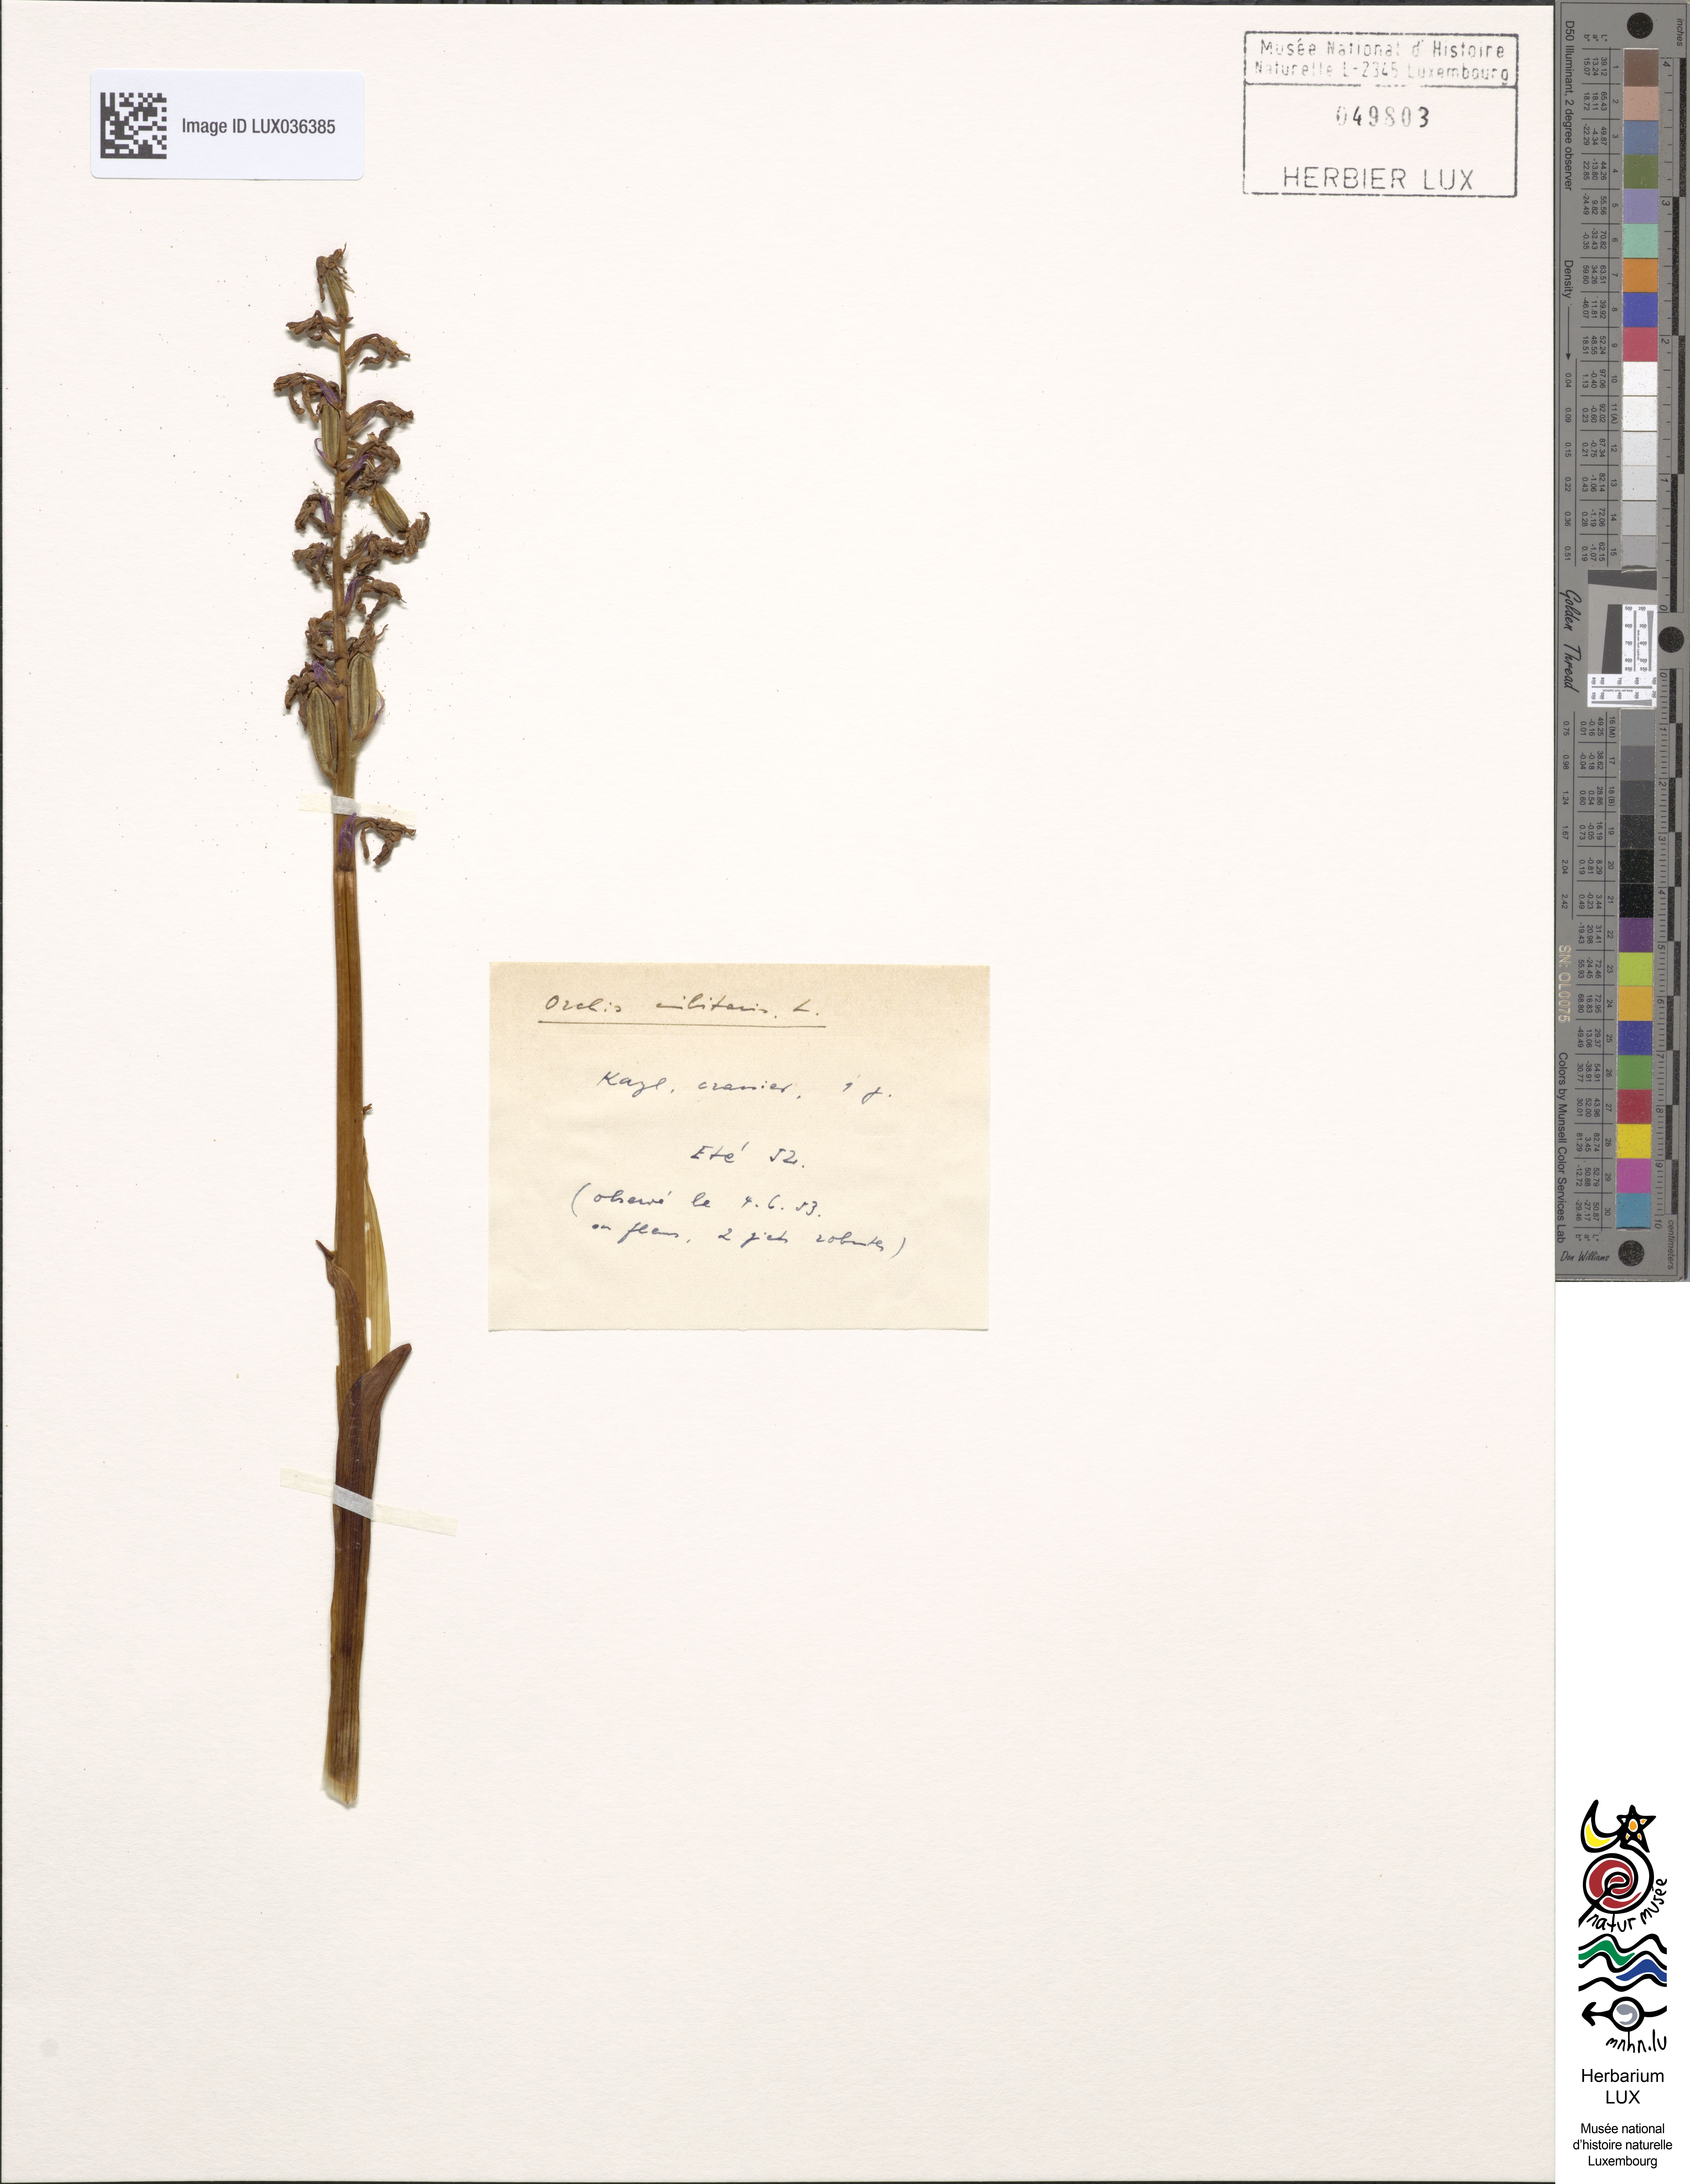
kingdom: Plantae
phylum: Tracheophyta
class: Liliopsida
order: Asparagales
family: Orchidaceae
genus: Orchis
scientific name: Orchis militaris
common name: Military orchid
